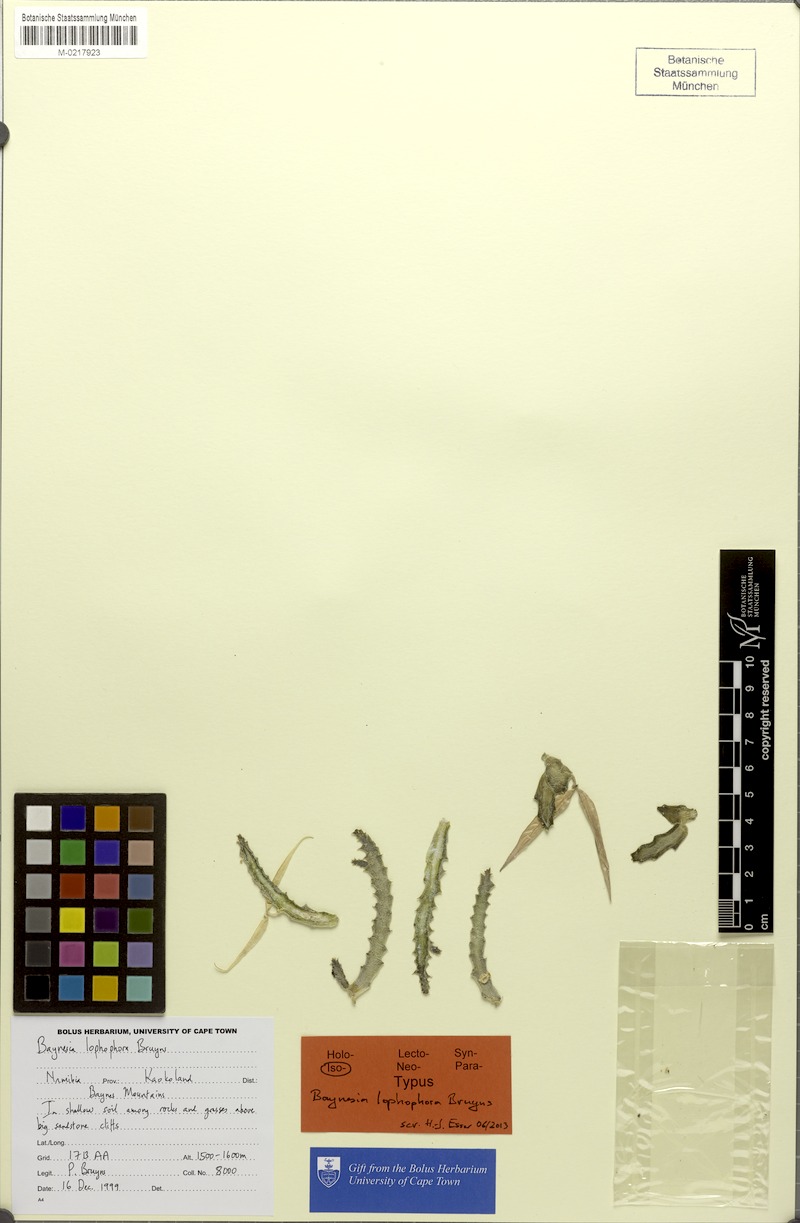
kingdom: Plantae
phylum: Tracheophyta
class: Magnoliopsida
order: Gentianales
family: Apocynaceae
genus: Ceropegia
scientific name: Ceropegia lophophora
